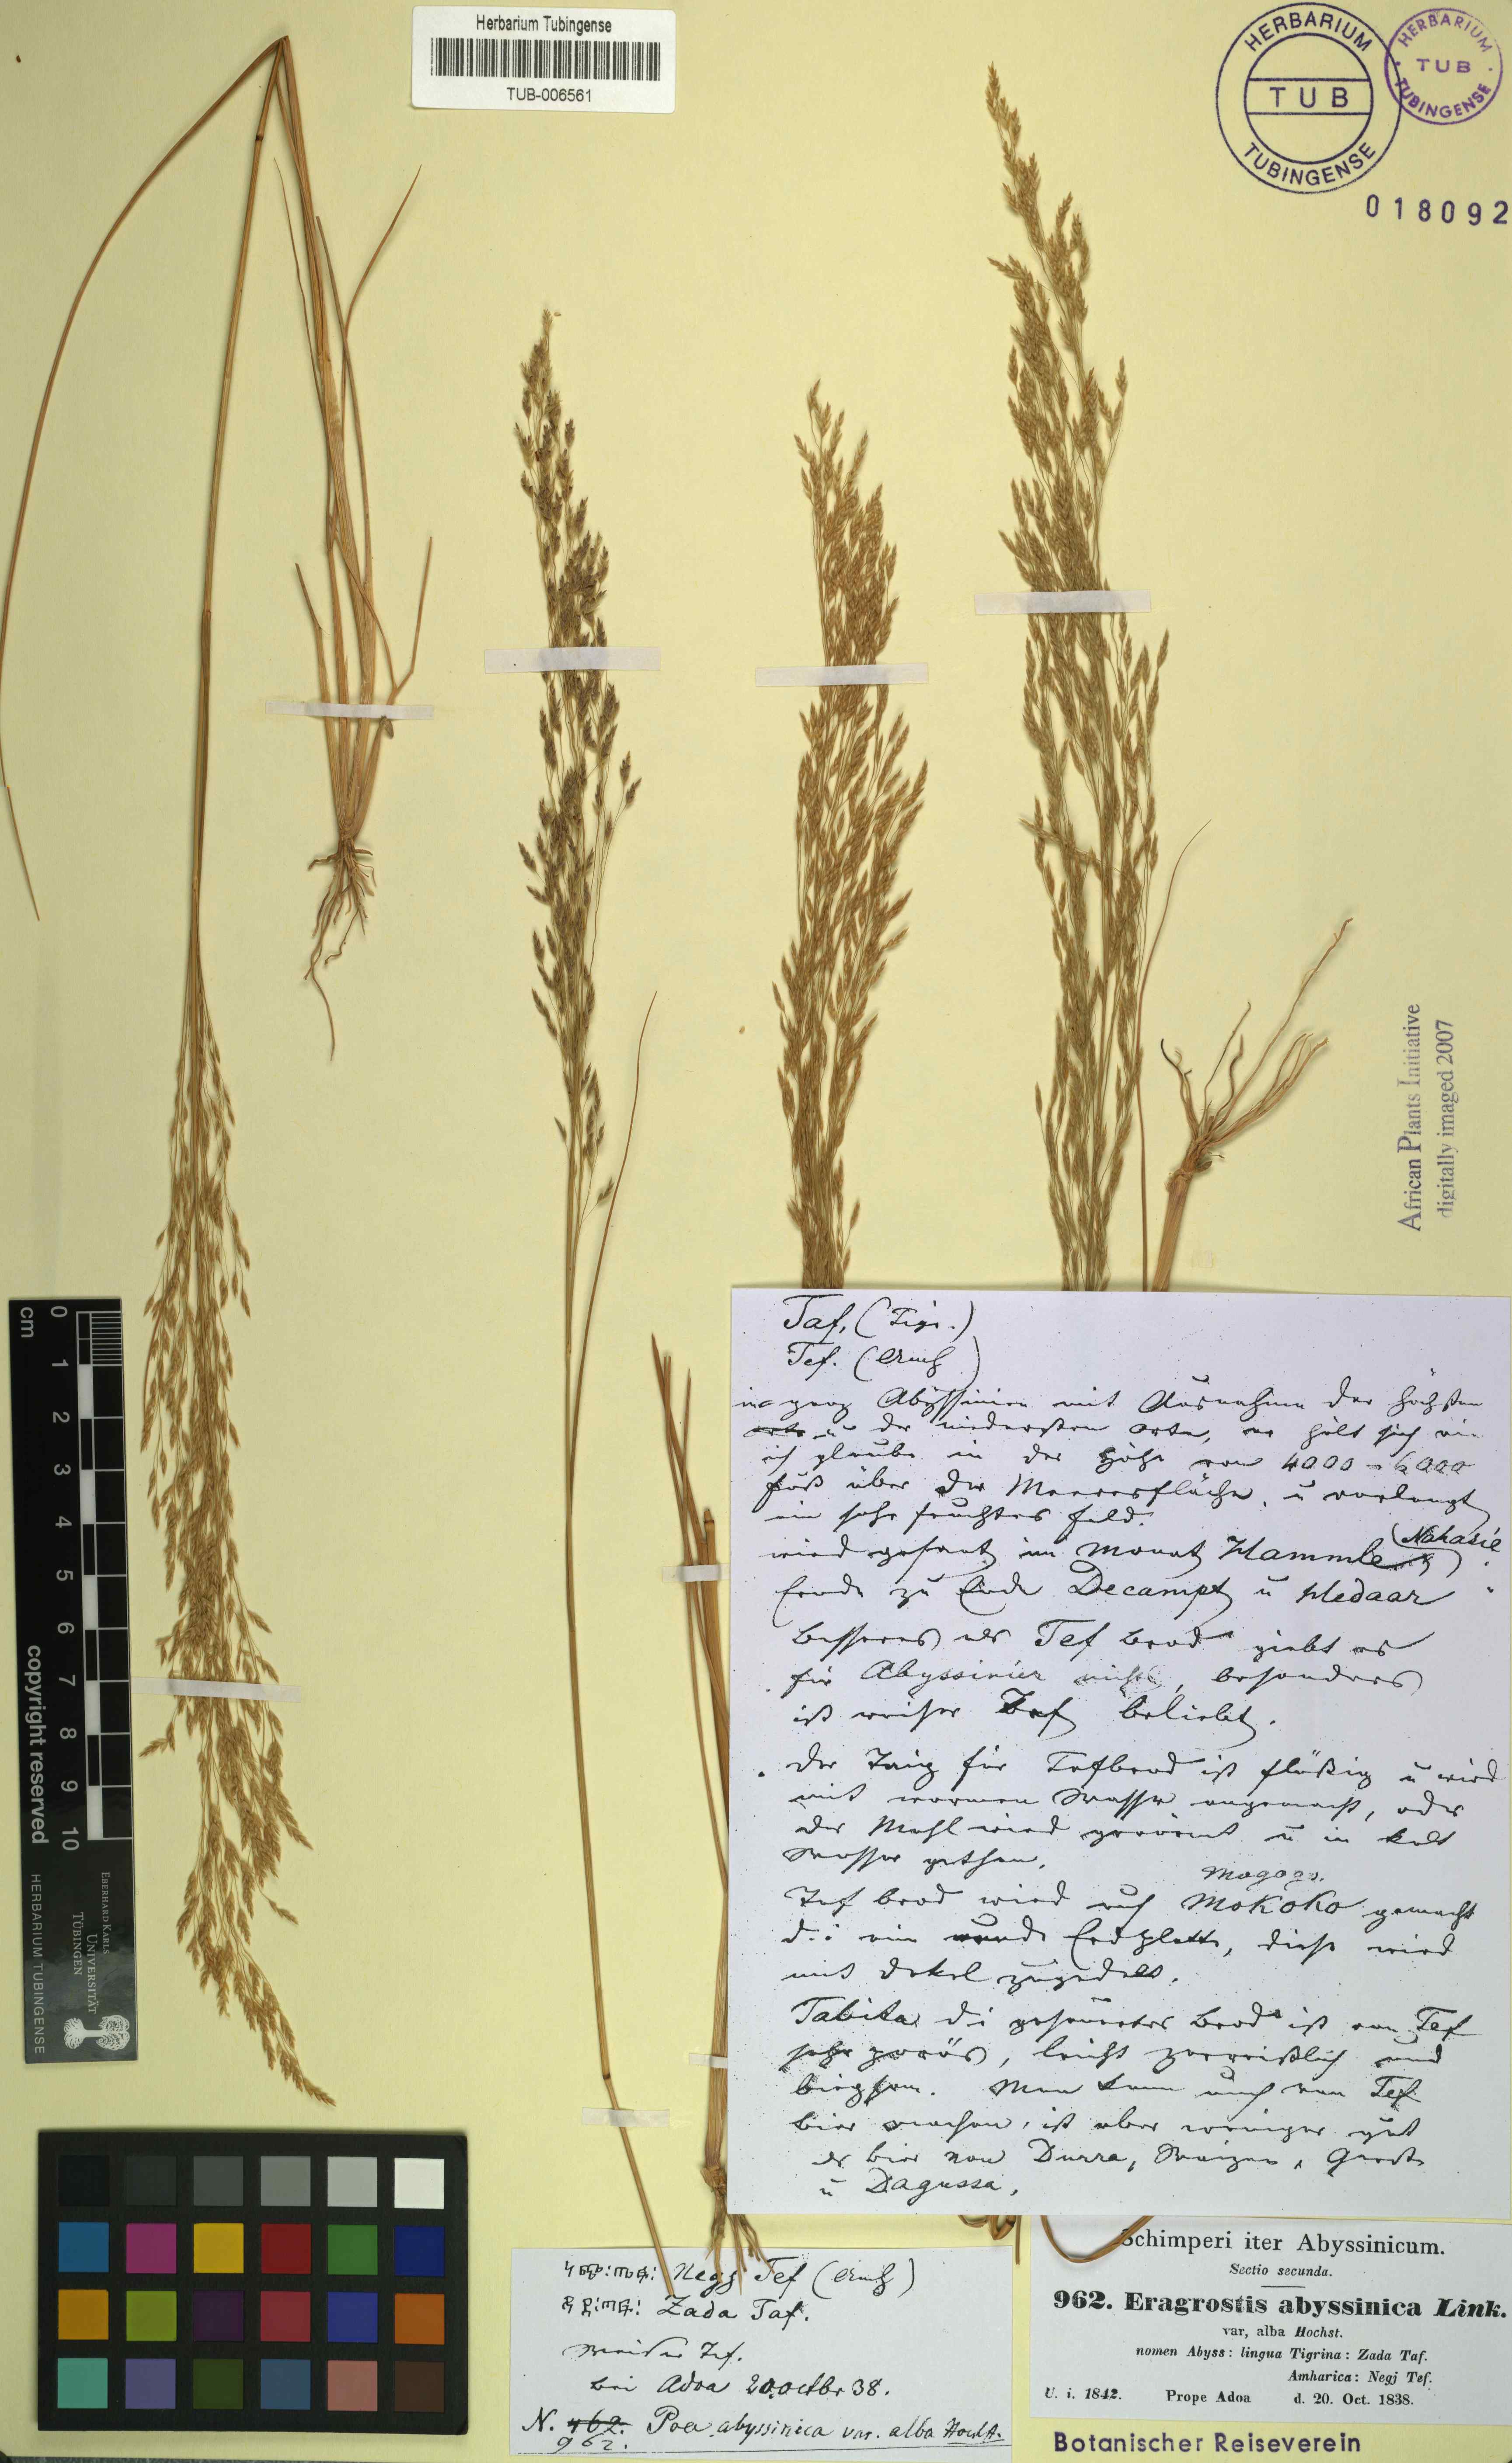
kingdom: Plantae
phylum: Tracheophyta
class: Liliopsida
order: Poales
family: Poaceae
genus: Eragrostis
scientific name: Eragrostis tef
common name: Teff
